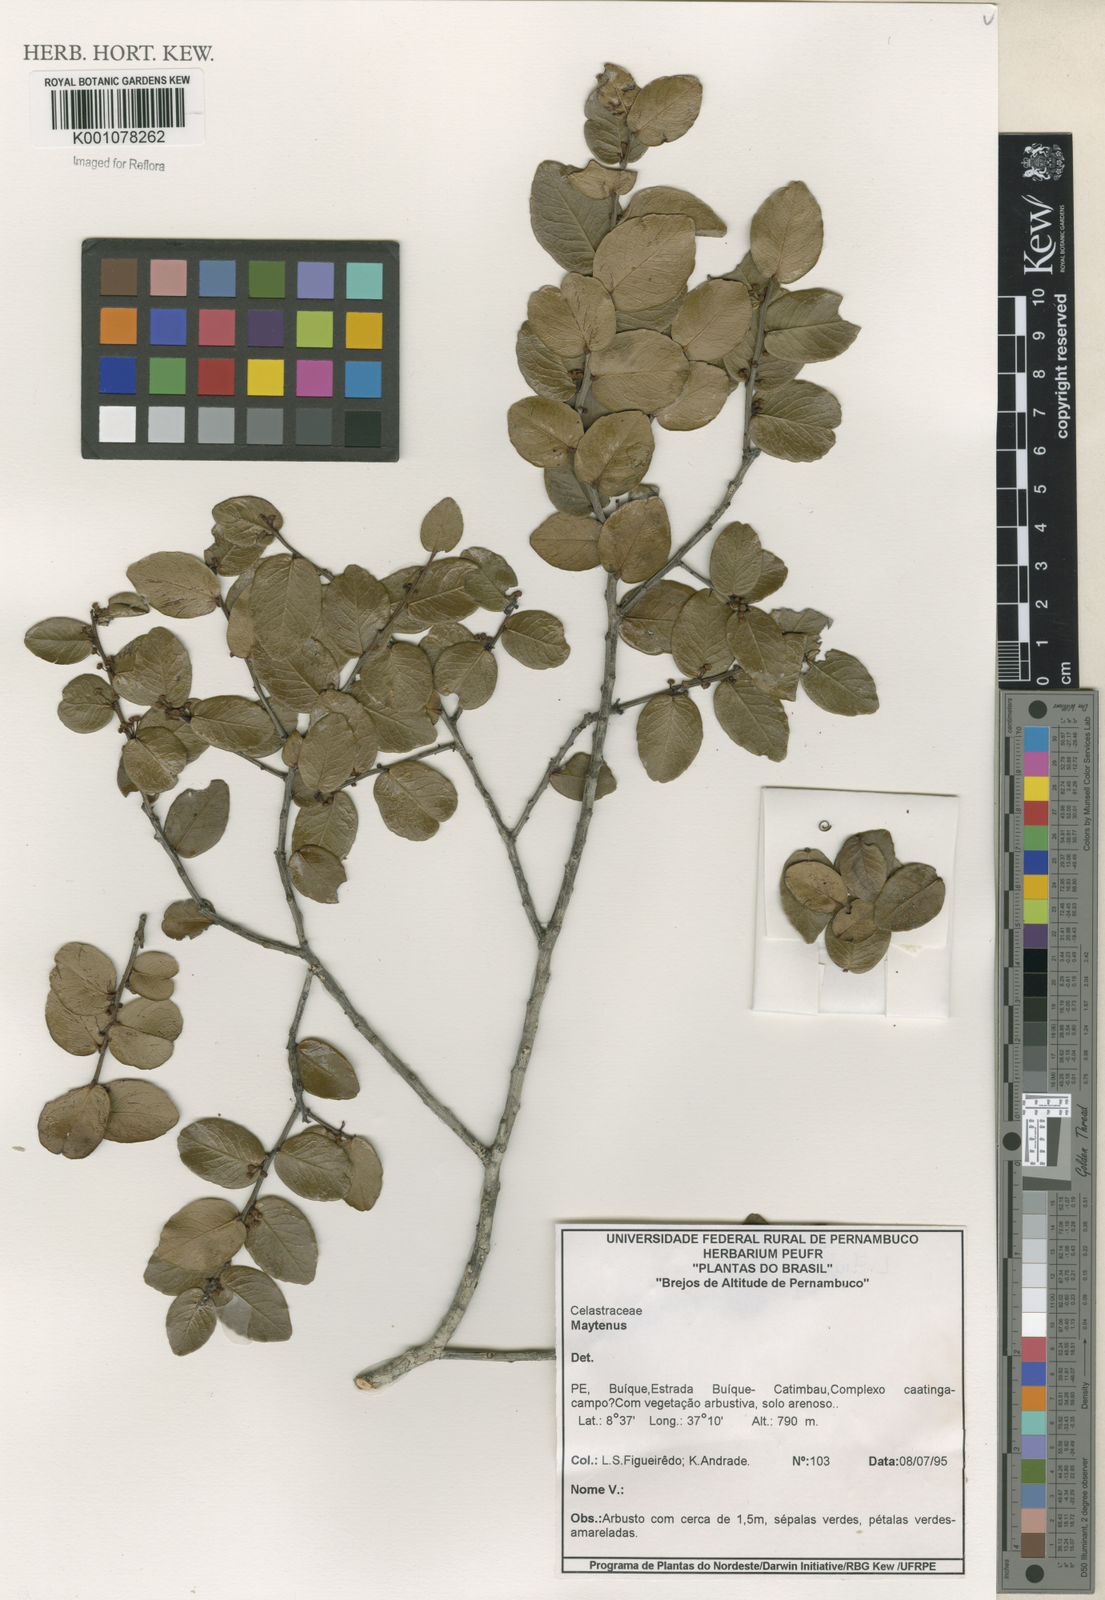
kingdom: Plantae
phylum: Tracheophyta
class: Magnoliopsida
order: Celastrales
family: Celastraceae
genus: Maytenus
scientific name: Maytenus
